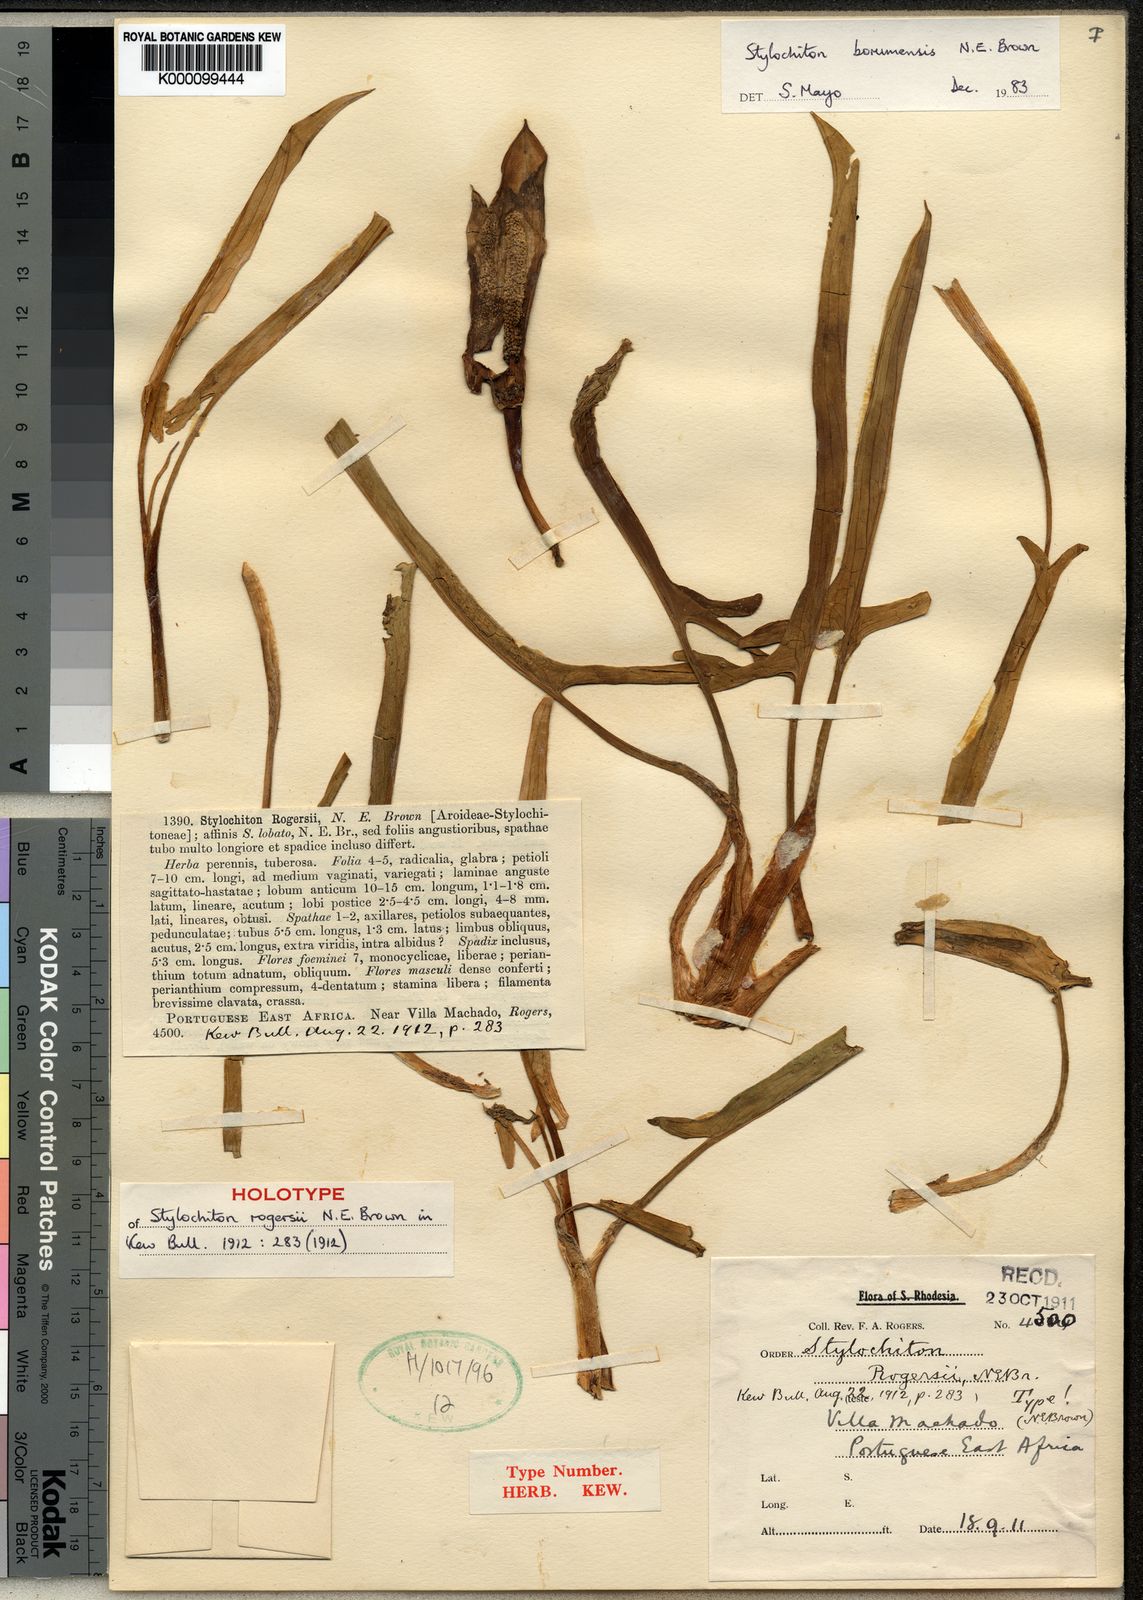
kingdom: Plantae
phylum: Tracheophyta
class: Liliopsida
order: Alismatales
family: Araceae
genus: Stylochaeton
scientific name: Stylochaeton
